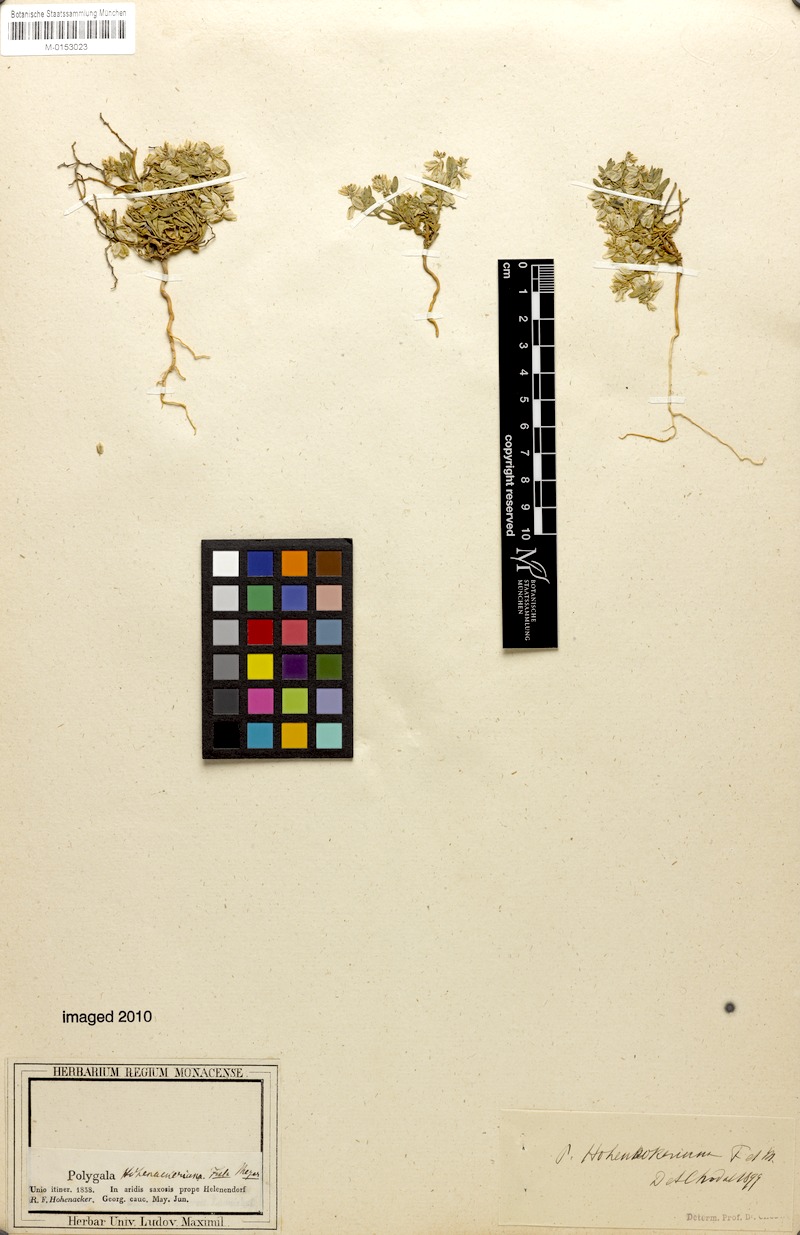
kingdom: Plantae
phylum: Tracheophyta
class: Magnoliopsida
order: Fabales
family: Polygalaceae
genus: Polygala
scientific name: Polygala hohenackeriana
